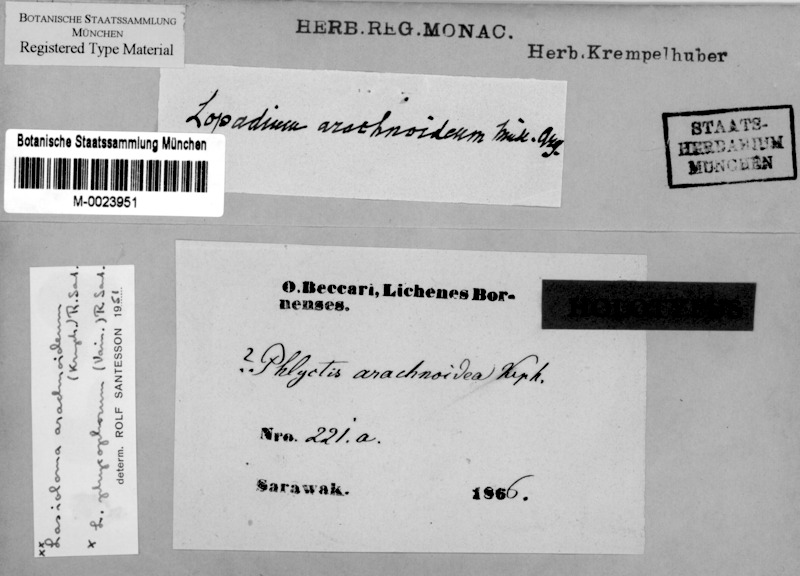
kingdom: Fungi
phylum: Ascomycota
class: Lecanoromycetes
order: Lecanorales
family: Byssolomataceae
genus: Lasioloma
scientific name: Lasioloma arachnoideum
